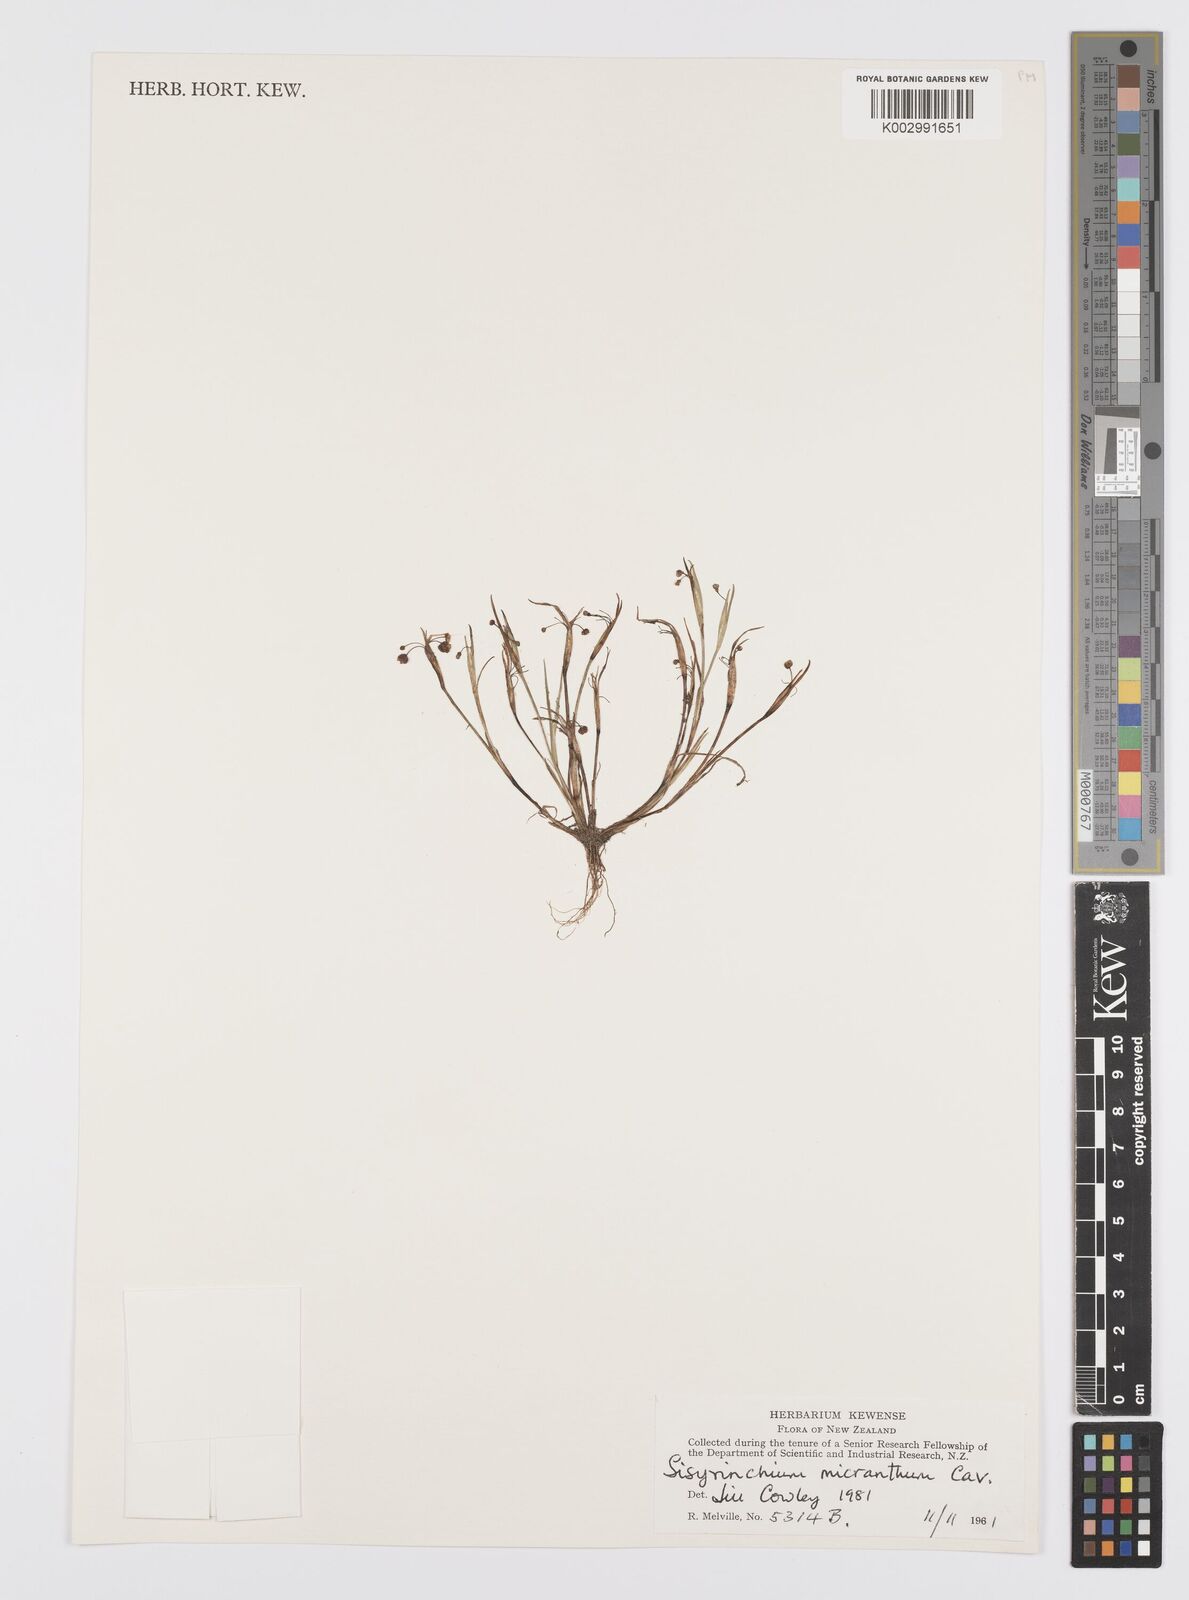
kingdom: Plantae
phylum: Tracheophyta
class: Liliopsida
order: Asparagales
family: Iridaceae
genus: Sisyrinchium
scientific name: Sisyrinchium micranthum
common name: Bermuda pigroot
